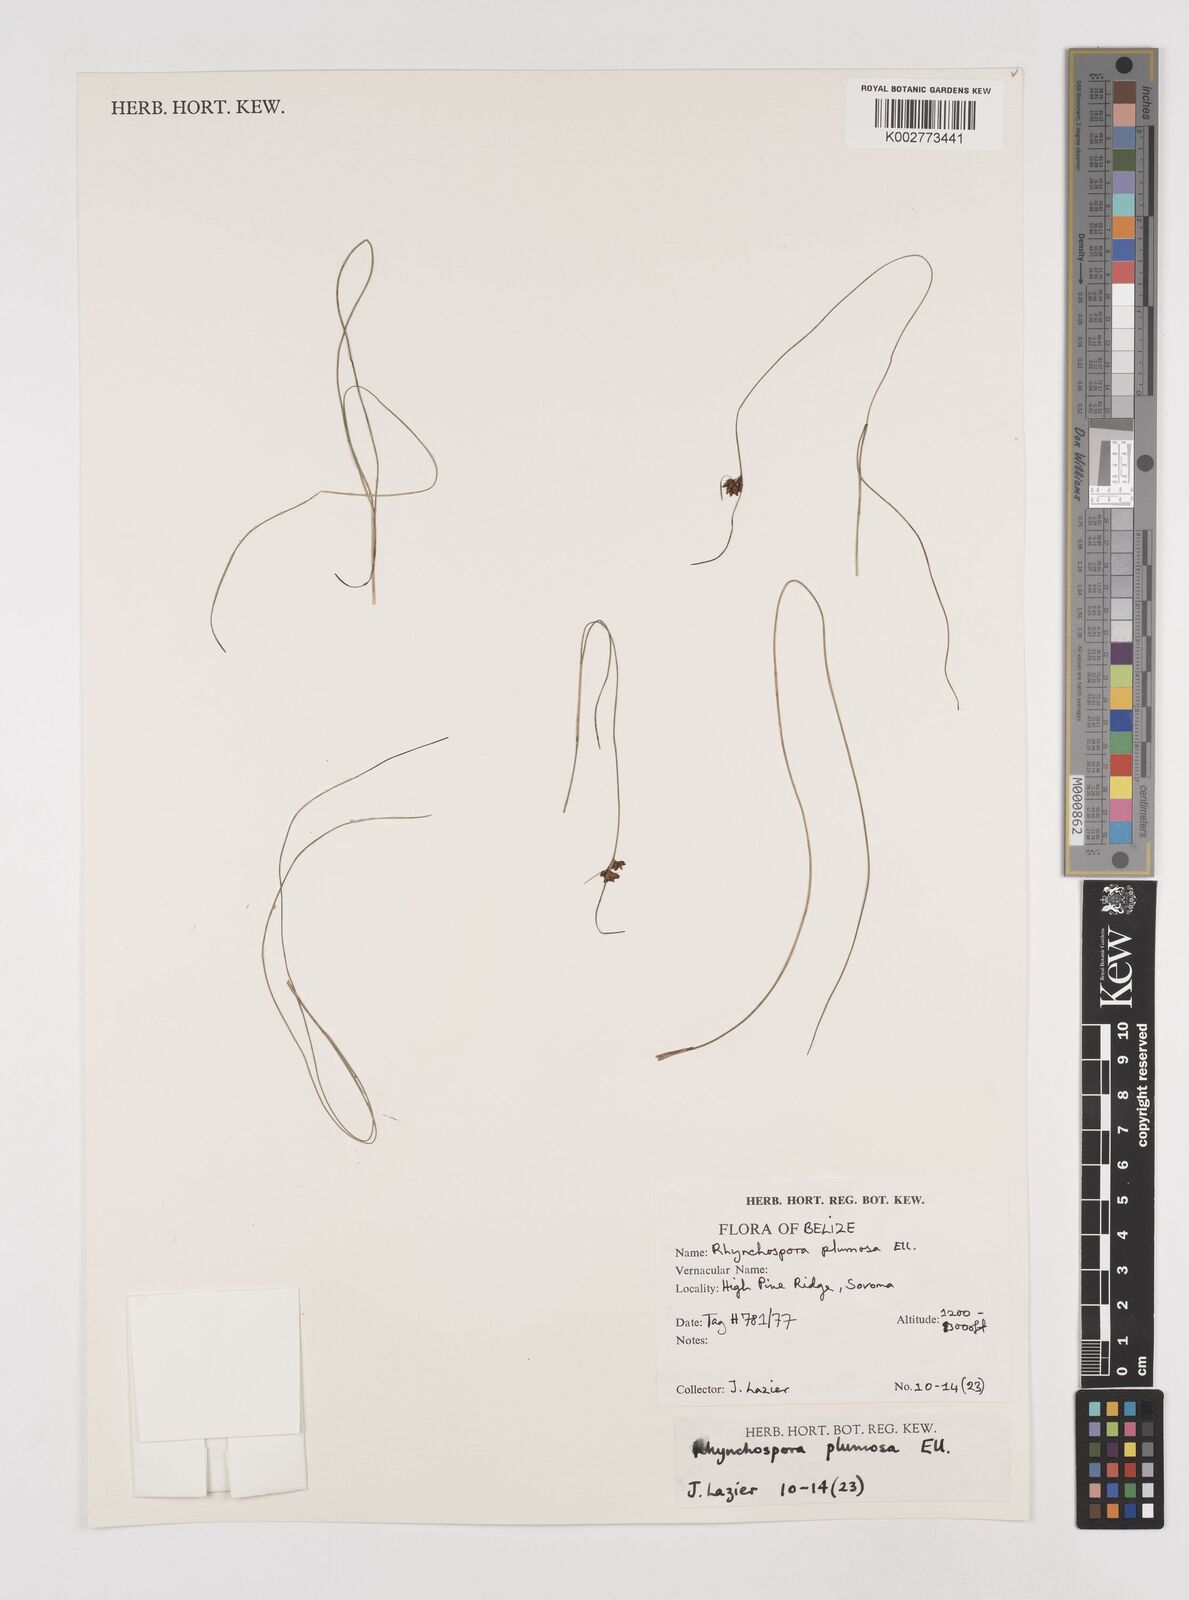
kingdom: Plantae
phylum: Tracheophyta
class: Liliopsida
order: Poales
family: Cyperaceae
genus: Rhynchospora
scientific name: Rhynchospora plumosa
